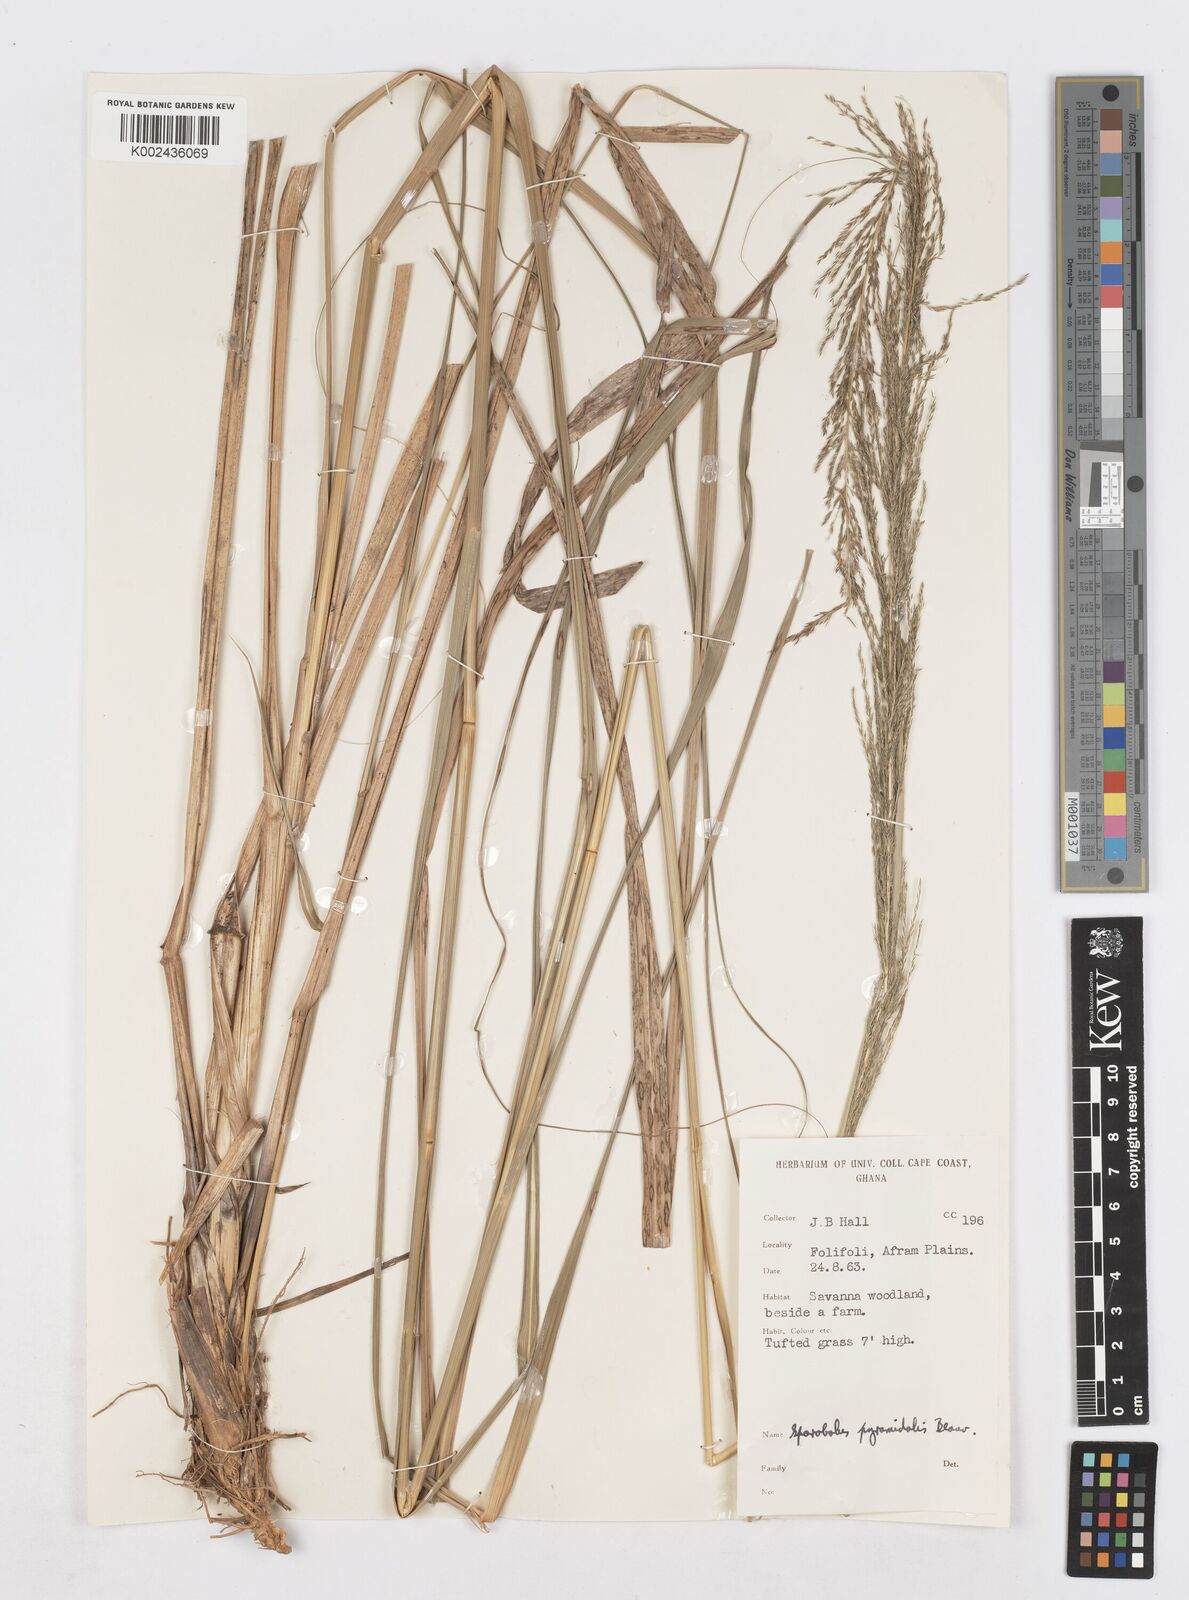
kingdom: Plantae
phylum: Tracheophyta
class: Liliopsida
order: Poales
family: Poaceae
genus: Sporobolus
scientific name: Sporobolus pyramidalis
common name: West indian dropseed
